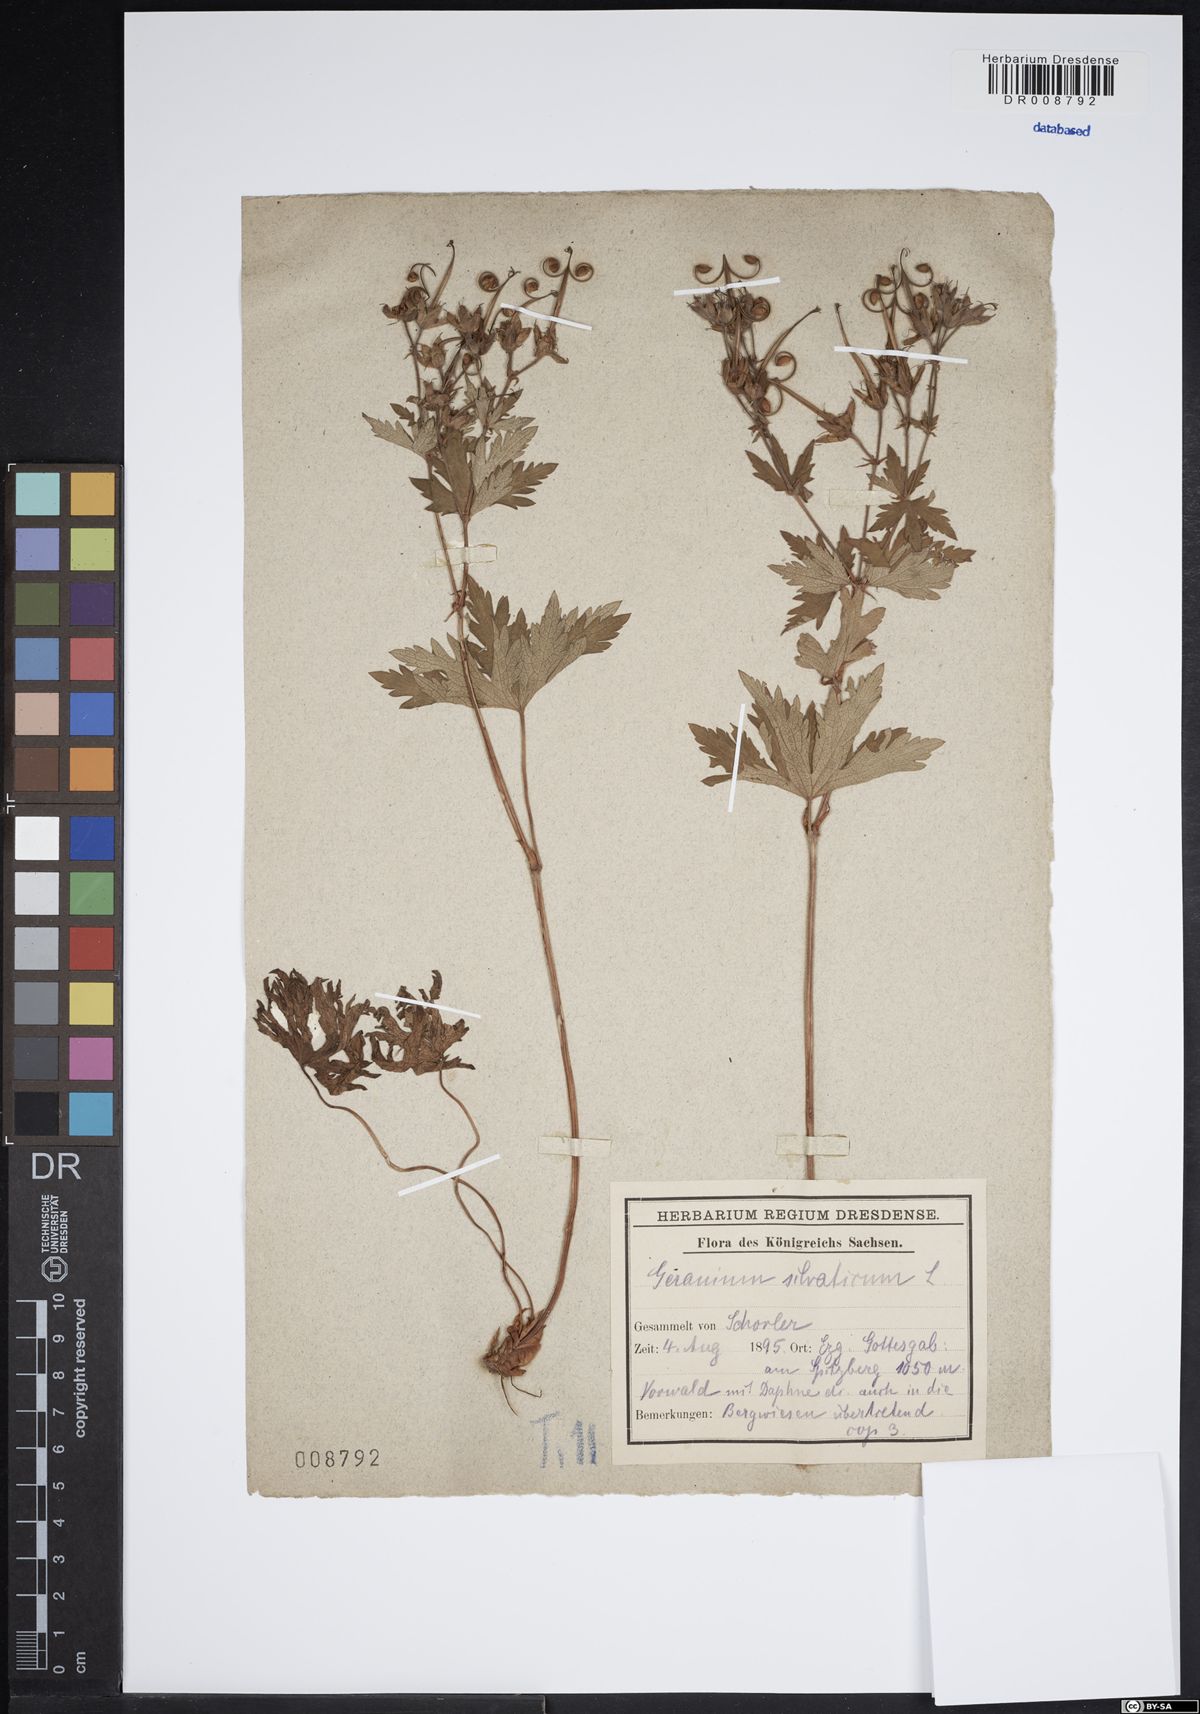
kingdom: Plantae
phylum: Tracheophyta
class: Magnoliopsida
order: Geraniales
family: Geraniaceae
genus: Geranium
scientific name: Geranium sylvaticum
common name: Wood crane's-bill
